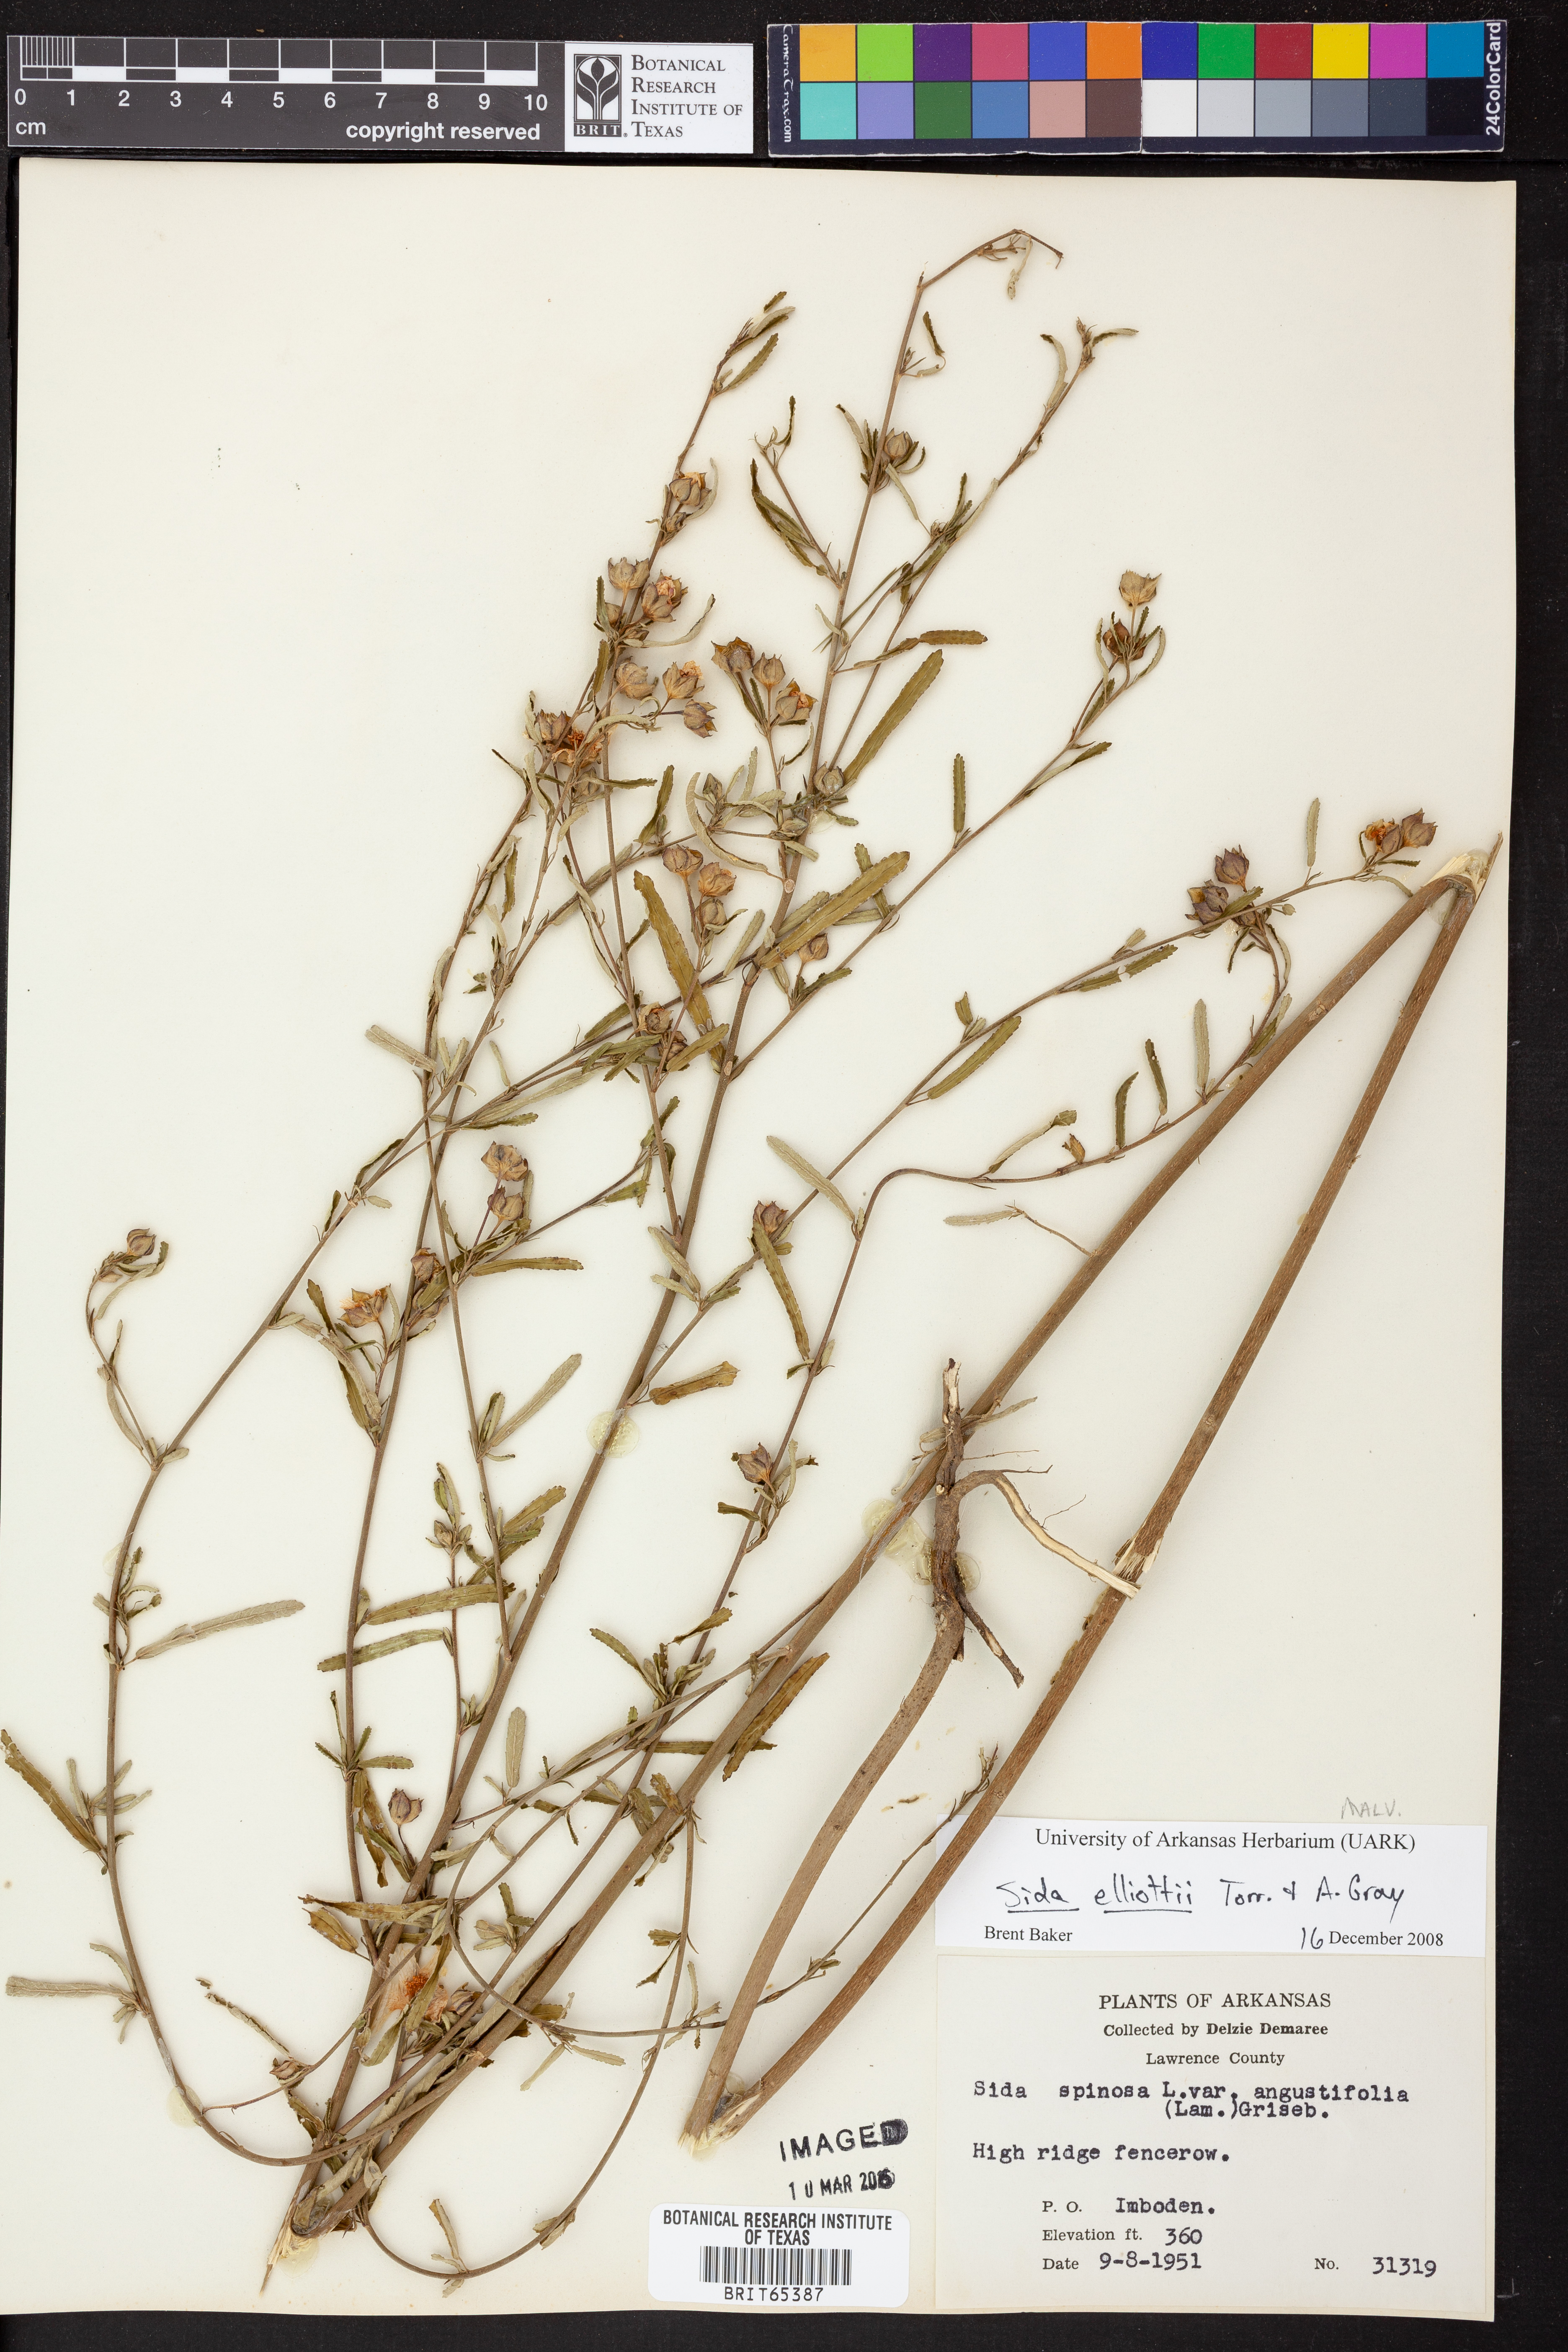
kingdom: Plantae
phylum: Tracheophyta
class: Magnoliopsida
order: Malvales
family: Malvaceae
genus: Sida
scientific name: Sida
